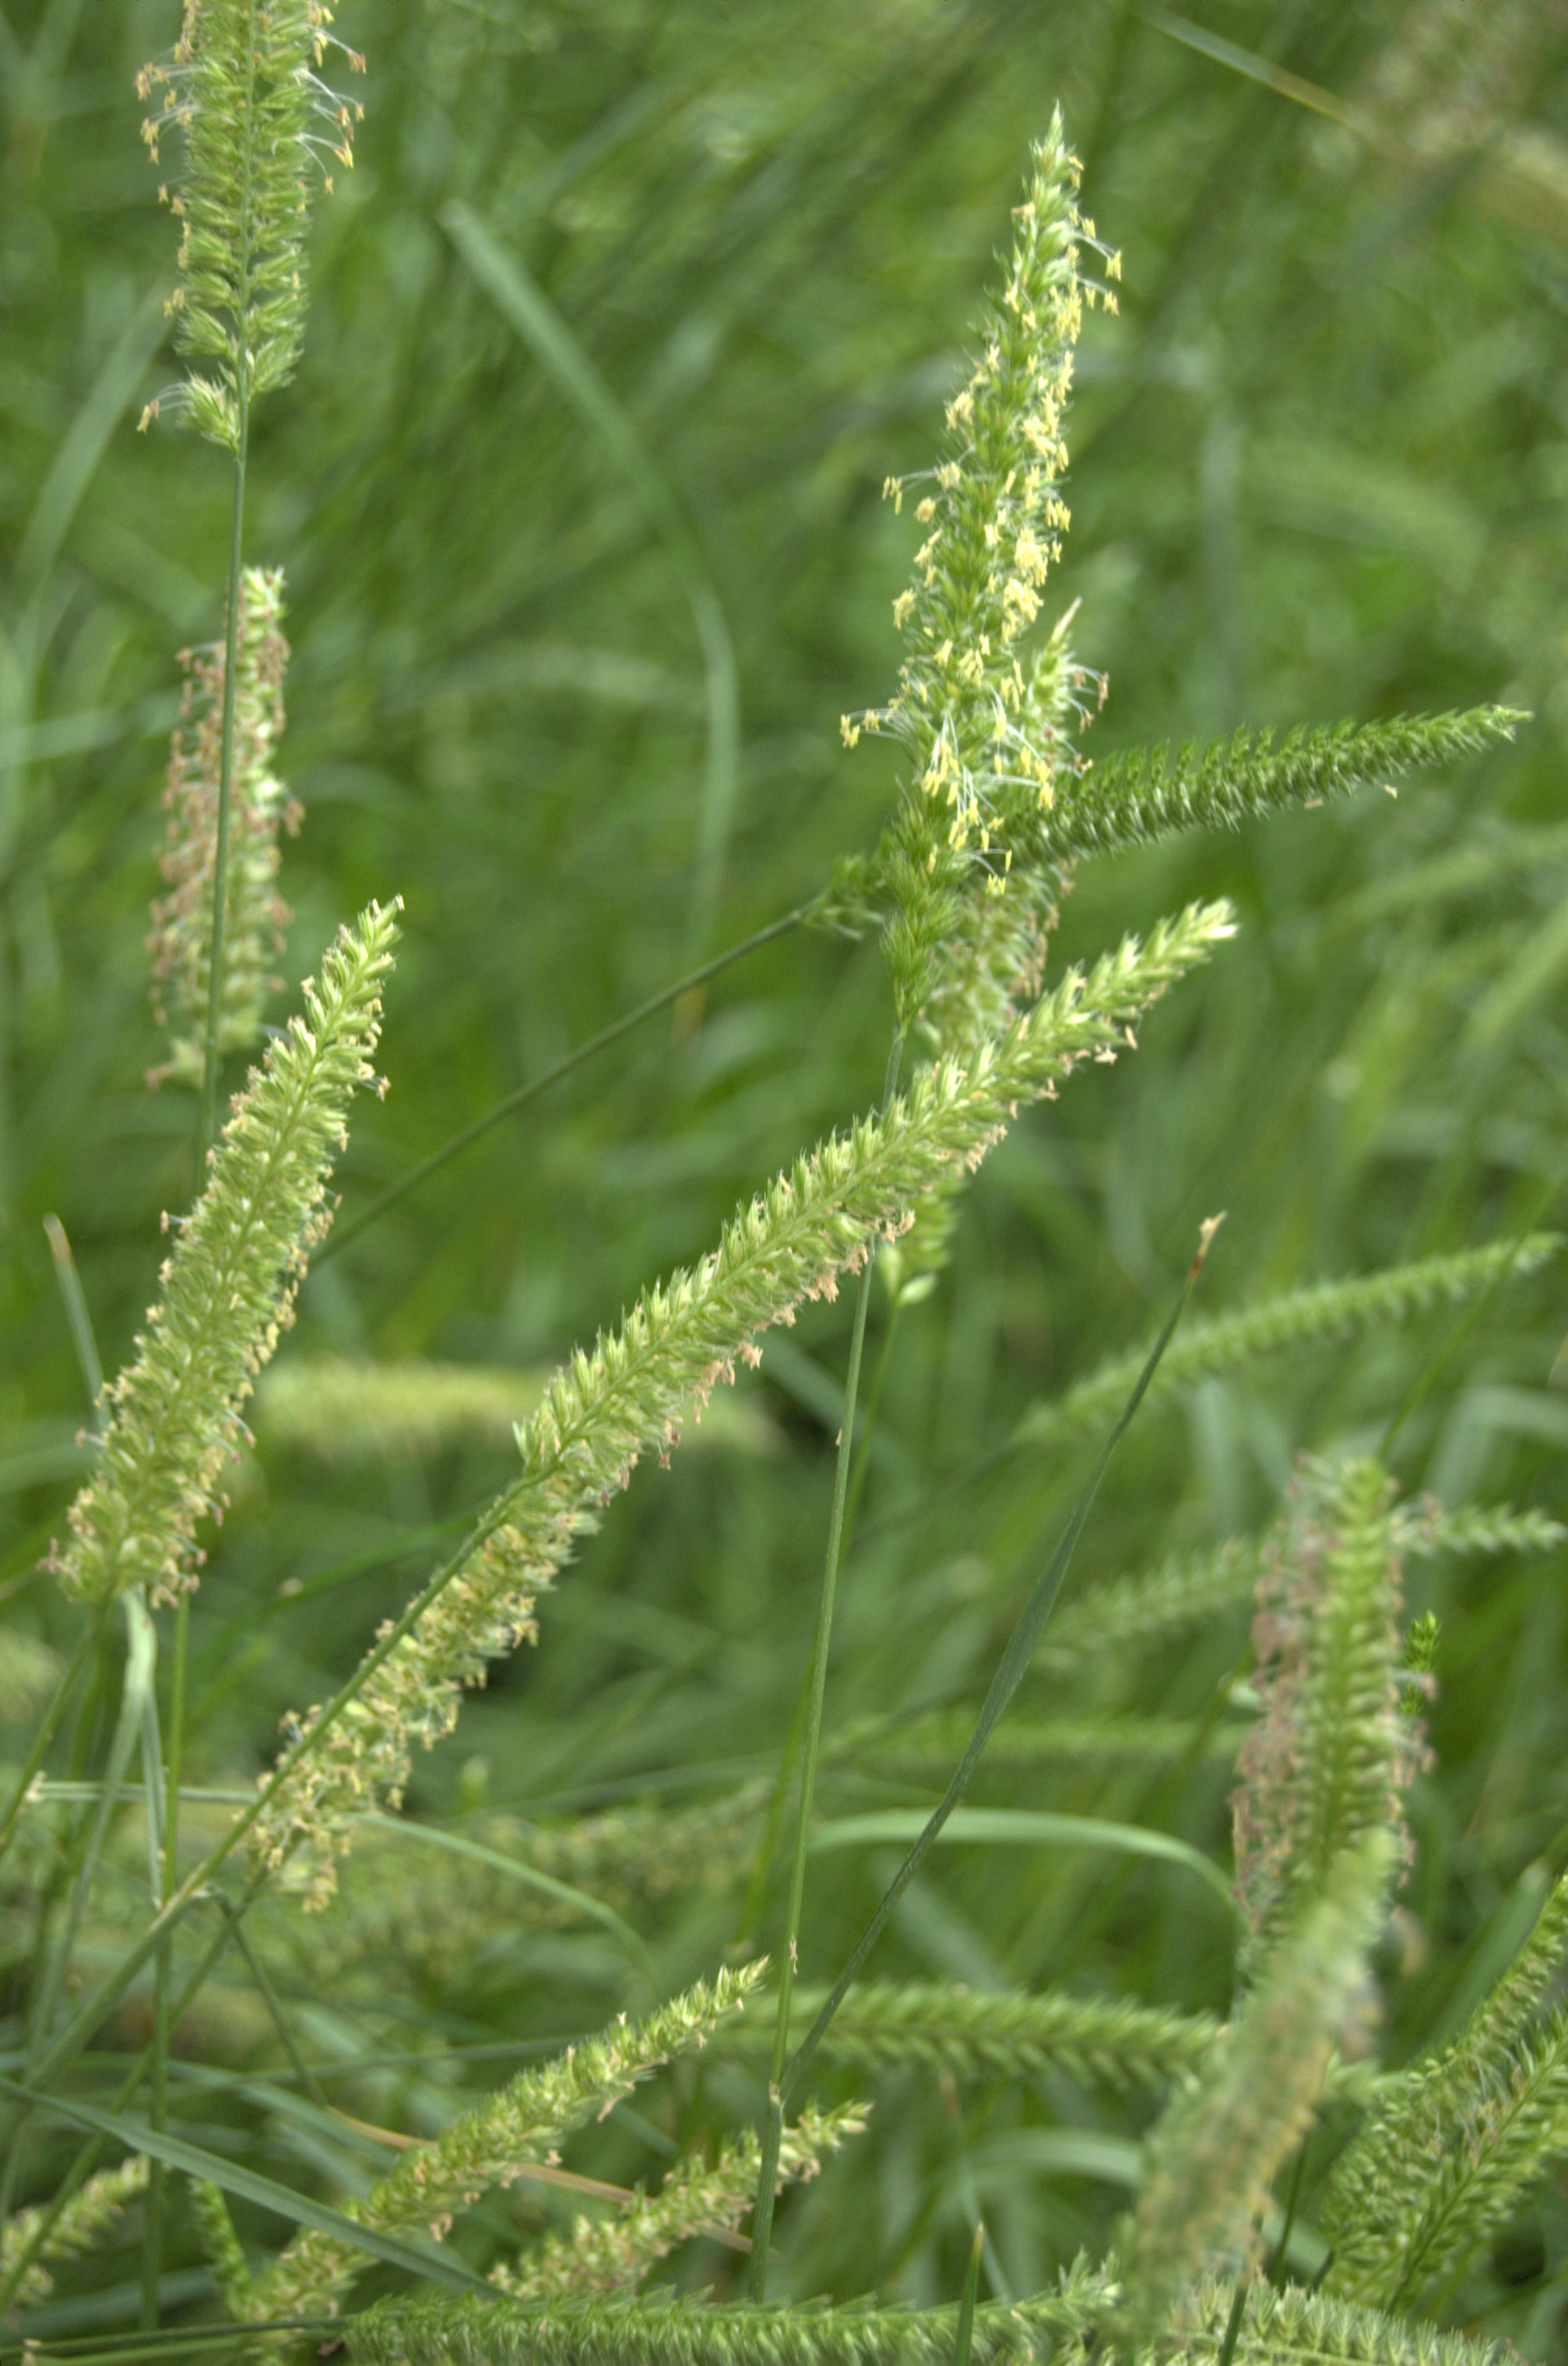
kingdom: Plantae
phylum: Tracheophyta
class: Liliopsida
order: Poales
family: Poaceae
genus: Cynosurus
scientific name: Cynosurus cristatus
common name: Crested dog's-tail
